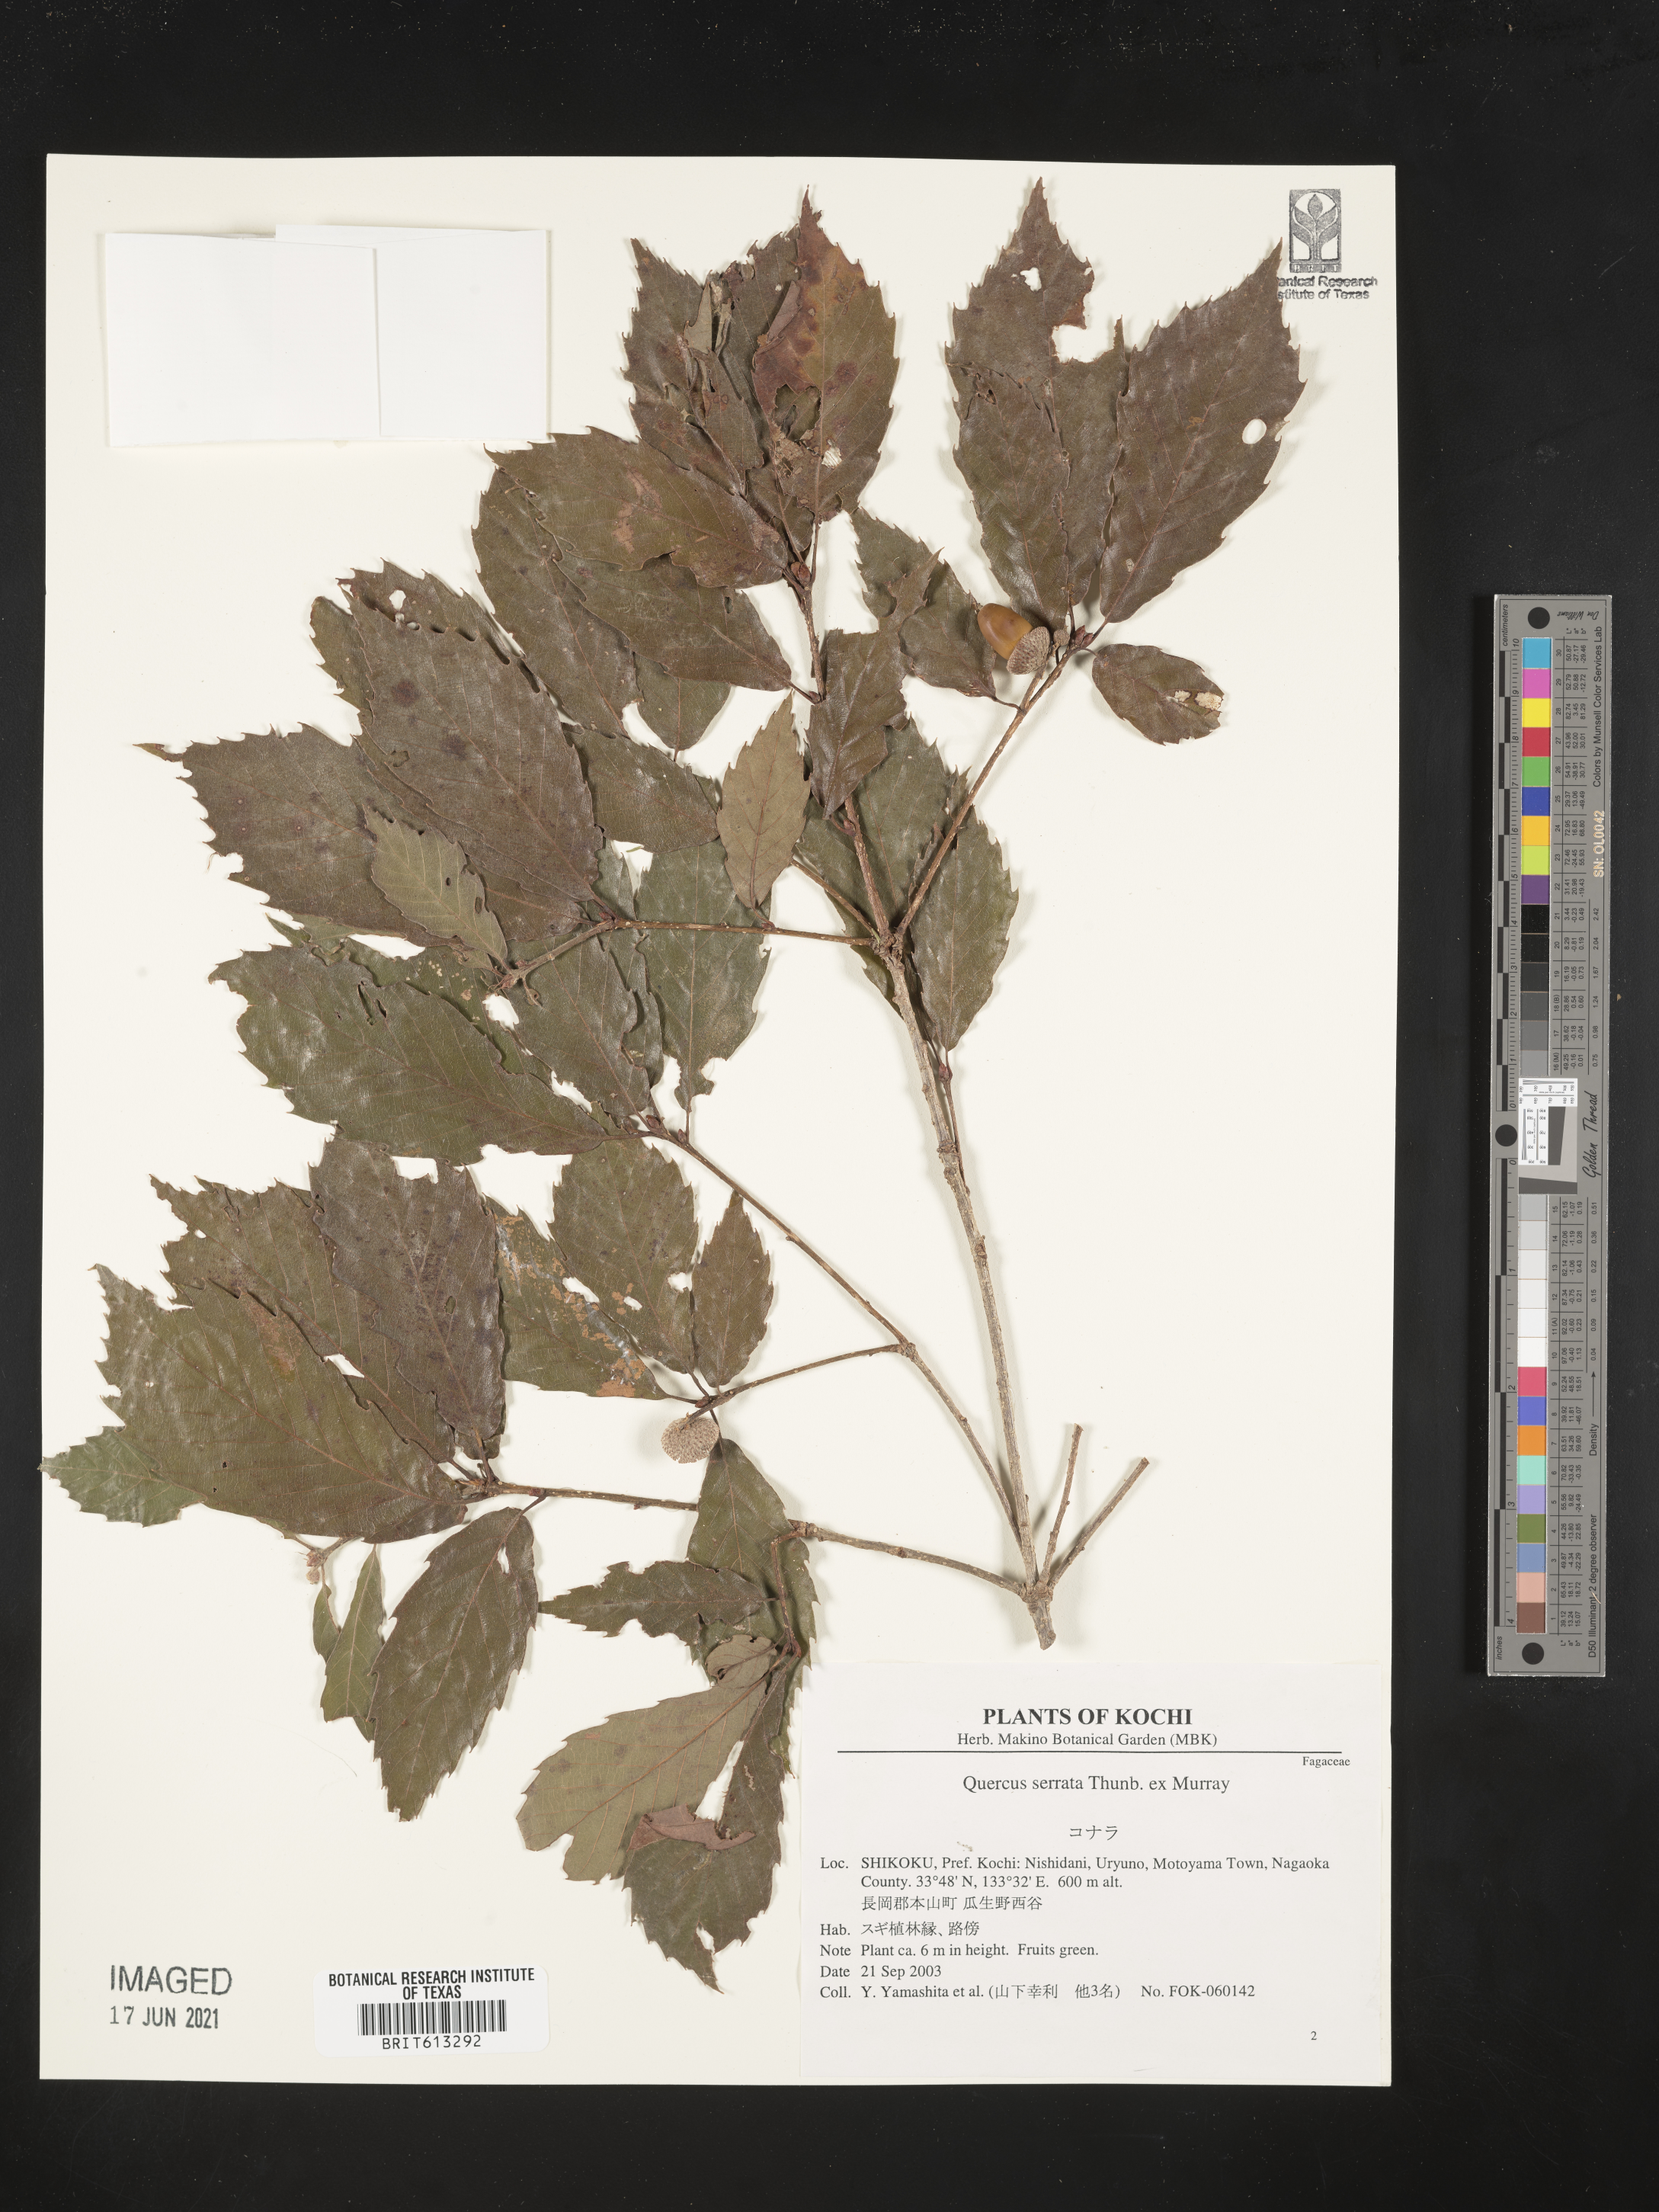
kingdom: Plantae
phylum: Tracheophyta
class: Magnoliopsida
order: Fagales
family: Fagaceae
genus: Quercus
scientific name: Quercus serrata
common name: Bao li
